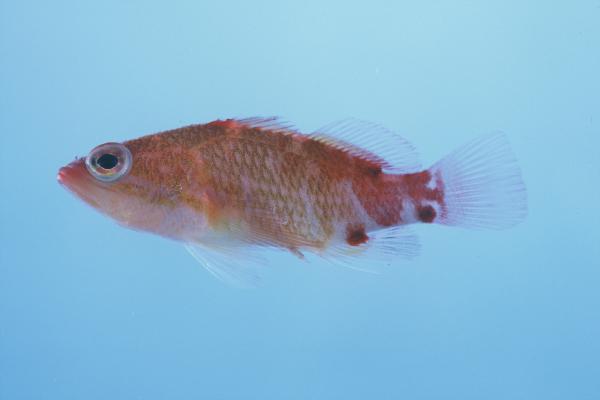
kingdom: Animalia
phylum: Chordata
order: Perciformes
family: Serranidae
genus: Plectranthias
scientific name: Plectranthias winniensis
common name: Redblotch perchlet
